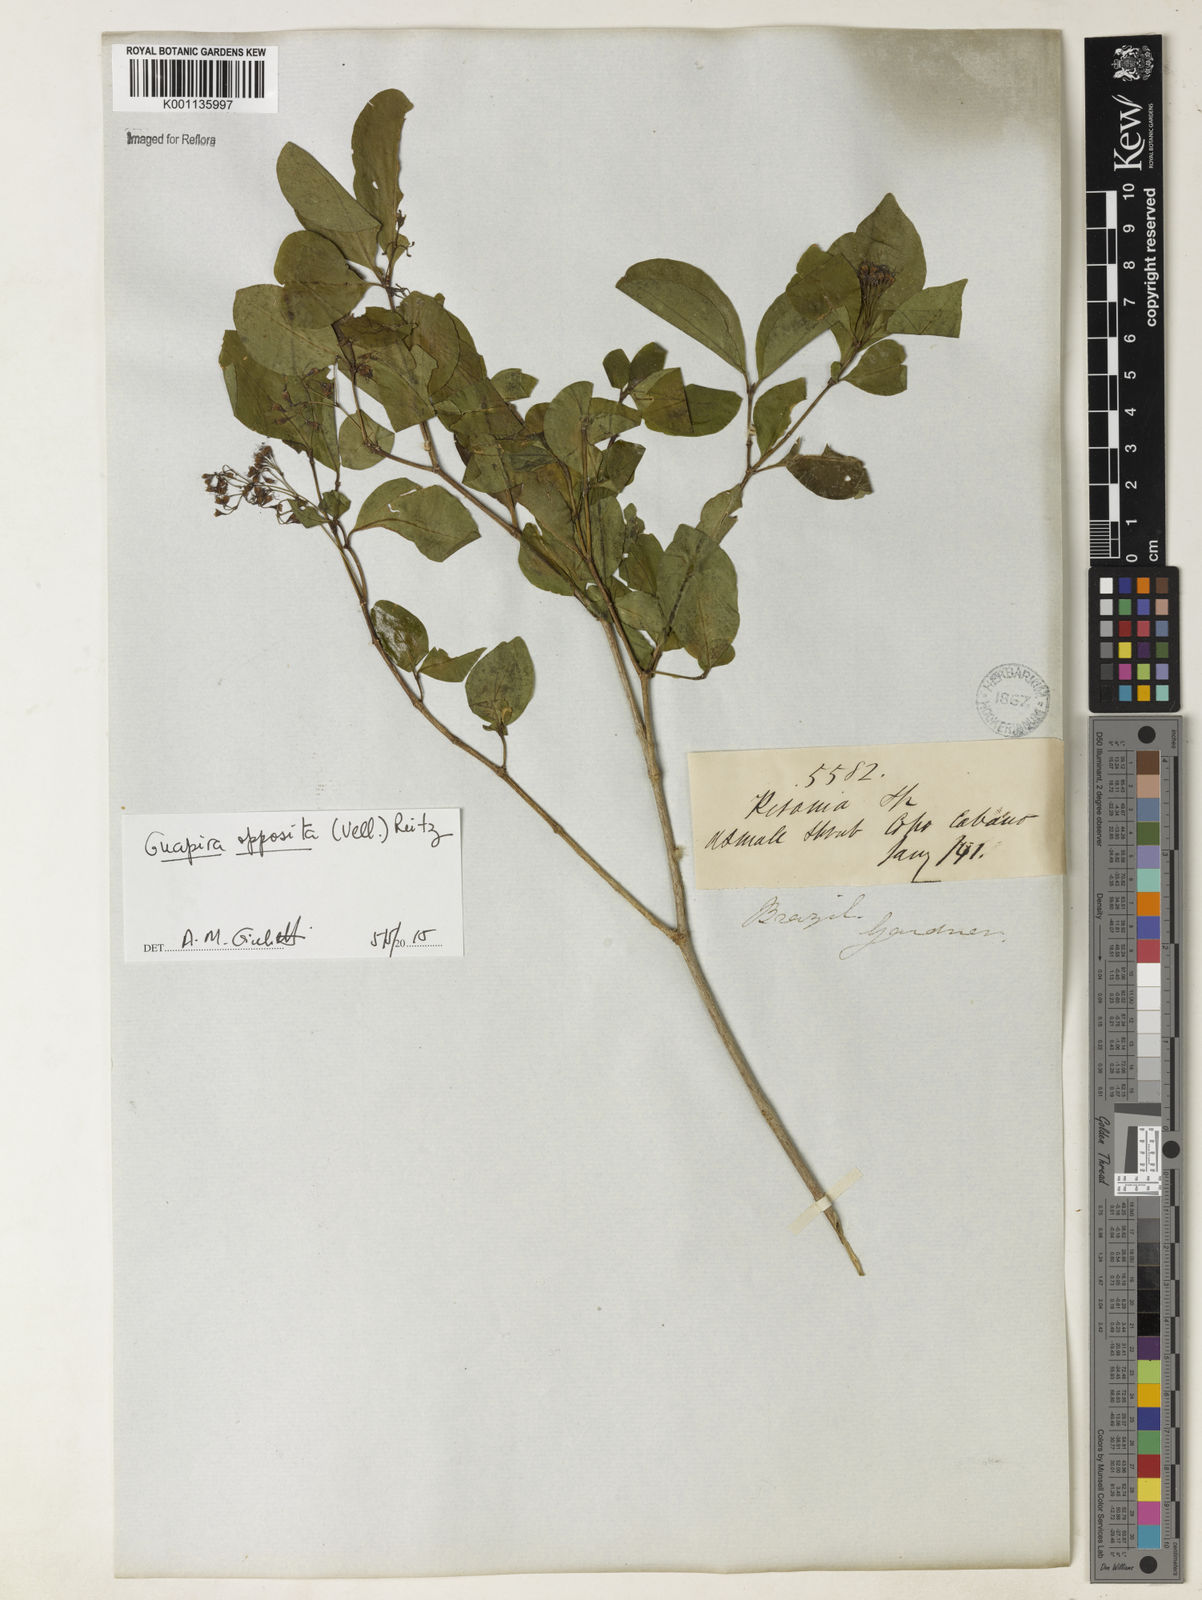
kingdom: Plantae
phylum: Tracheophyta
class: Magnoliopsida
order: Caryophyllales
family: Nyctaginaceae
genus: Guapira
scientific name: Guapira opposita
